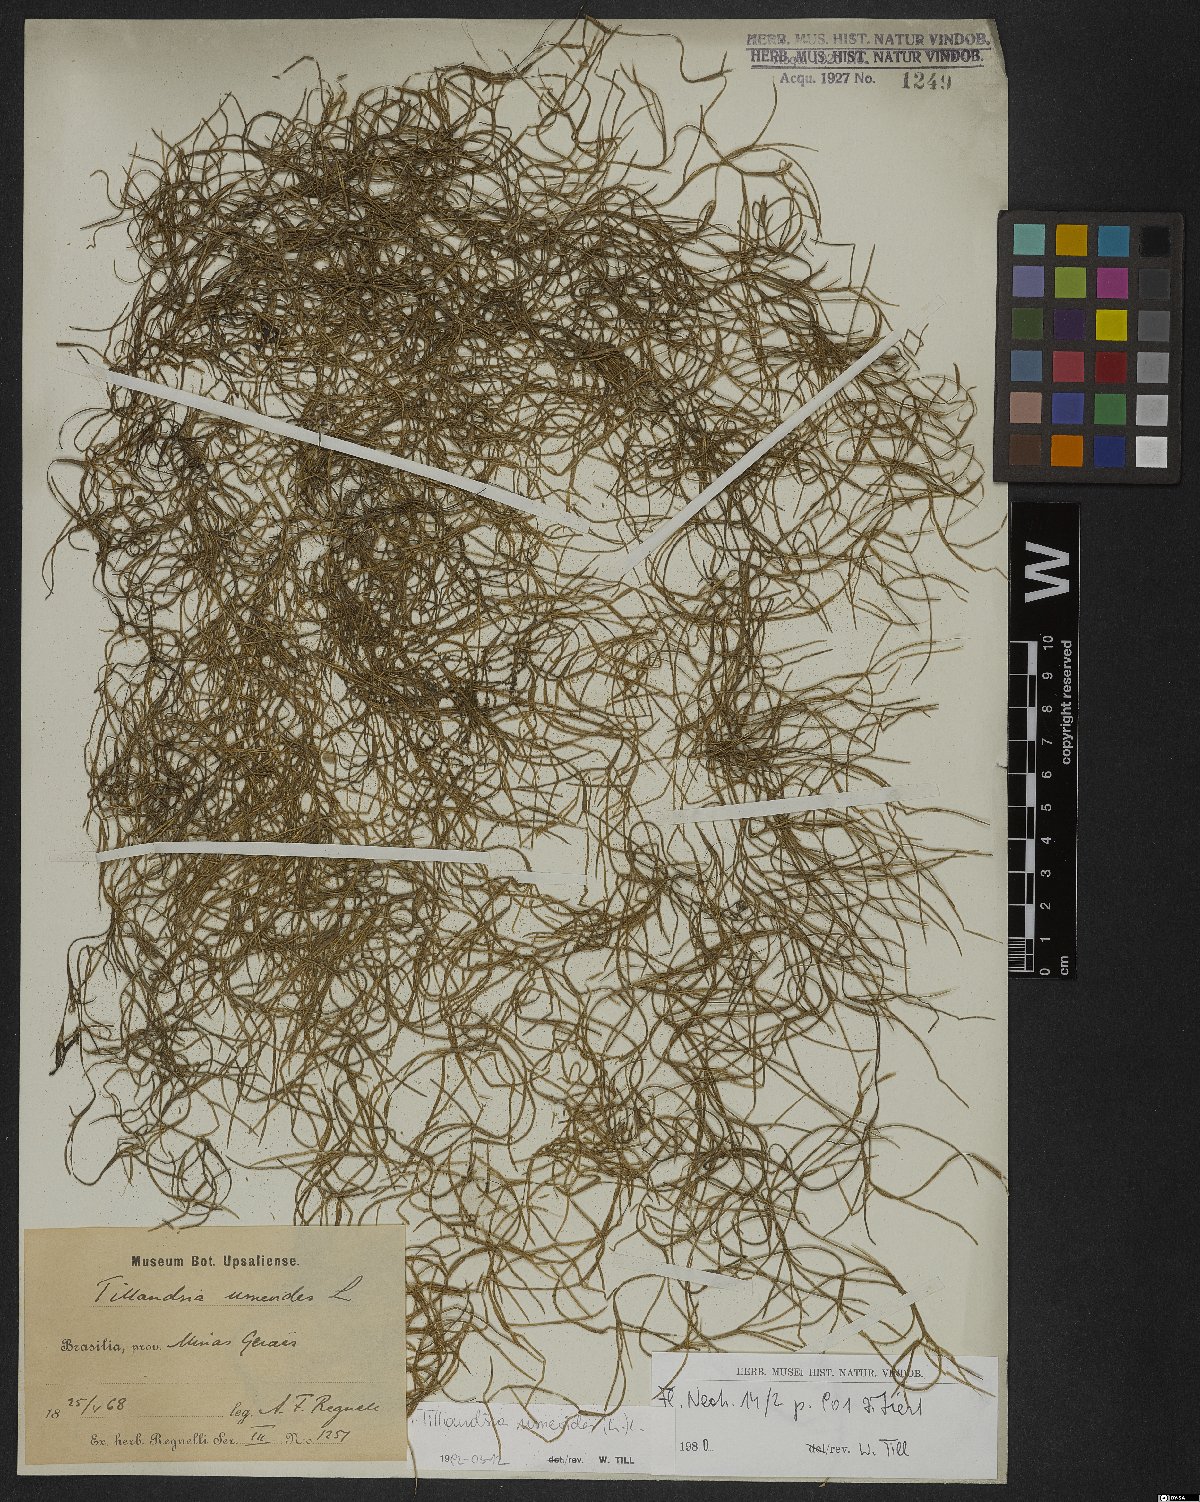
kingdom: Plantae
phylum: Tracheophyta
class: Liliopsida
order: Poales
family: Bromeliaceae
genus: Tillandsia
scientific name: Tillandsia usneoides
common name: Spanish moss
